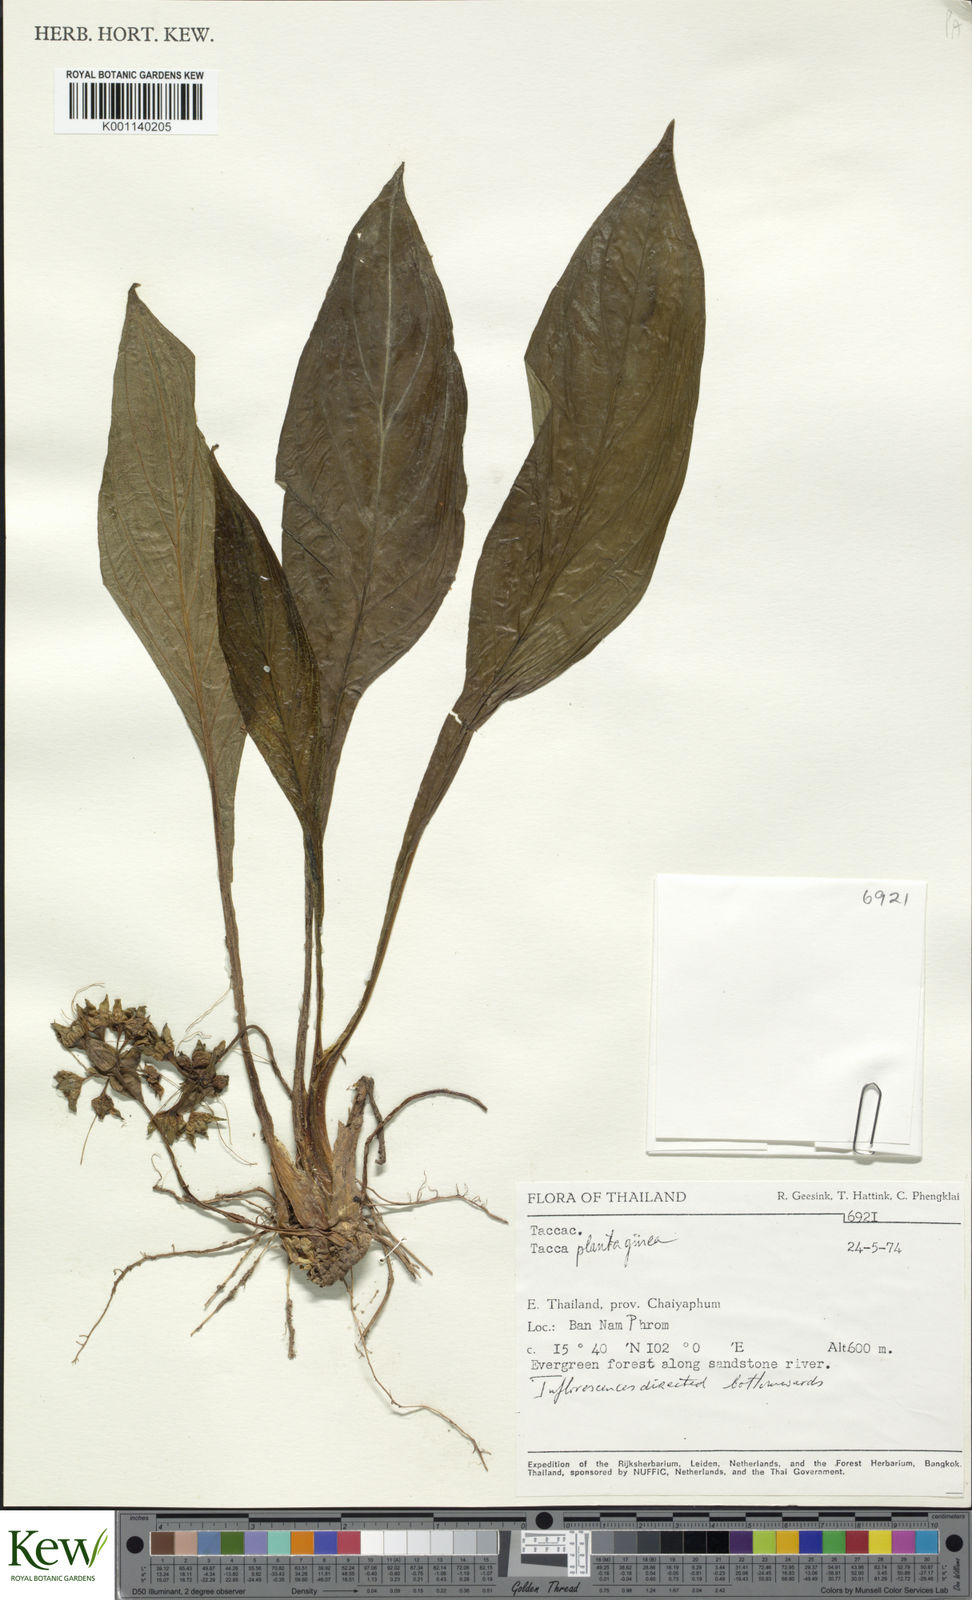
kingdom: Plantae
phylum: Tracheophyta
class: Liliopsida
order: Dioscoreales
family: Dioscoreaceae
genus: Tacca
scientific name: Tacca plantaginea
